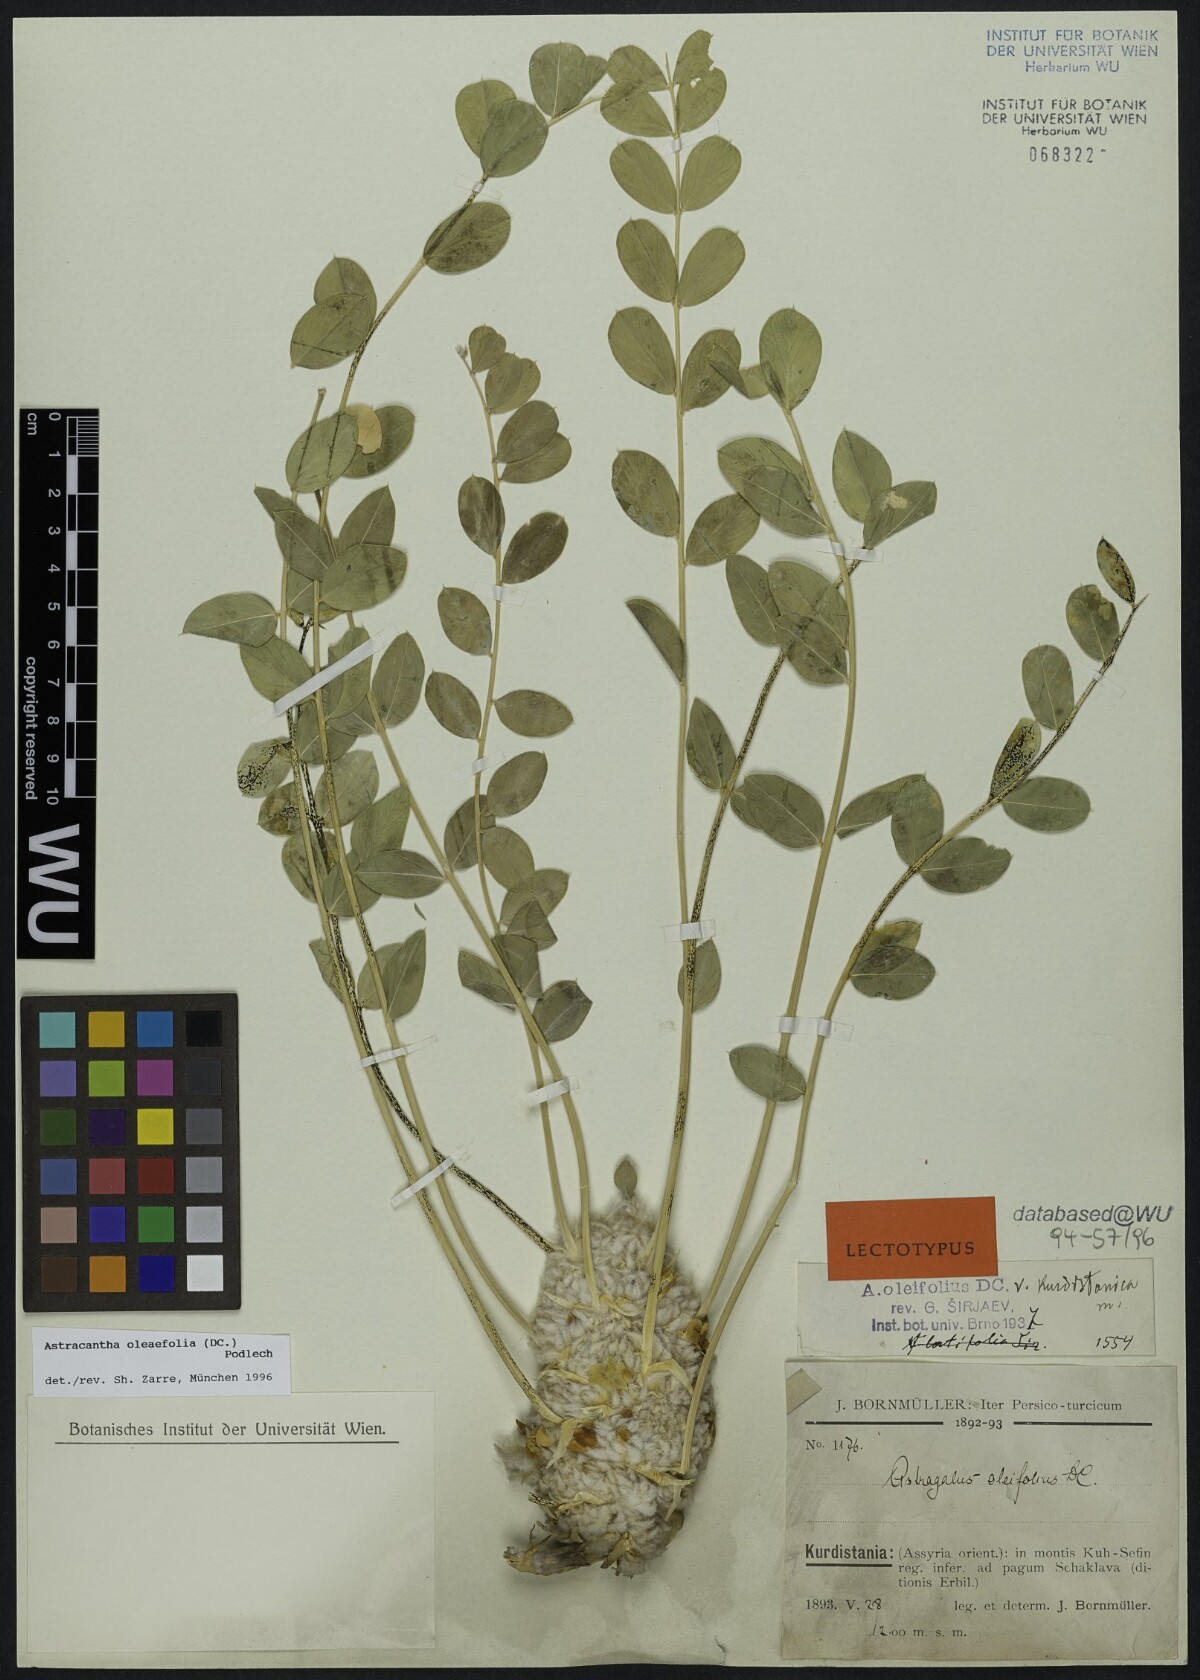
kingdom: Plantae
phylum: Tracheophyta
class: Magnoliopsida
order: Fabales
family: Fabaceae
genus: Astragalus
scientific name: Astragalus oleifolius
